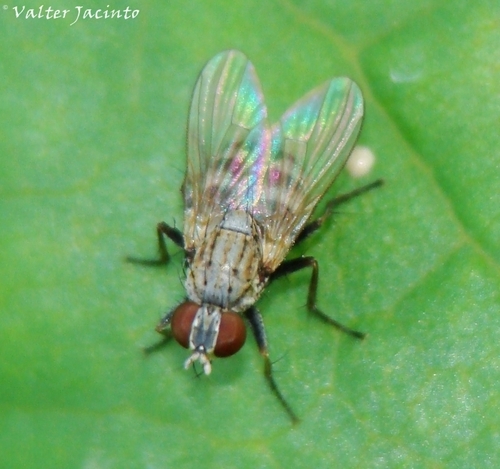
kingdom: Animalia
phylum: Arthropoda
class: Insecta
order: Diptera
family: Muscidae
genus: Coenosia
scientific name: Coenosia attenuata
